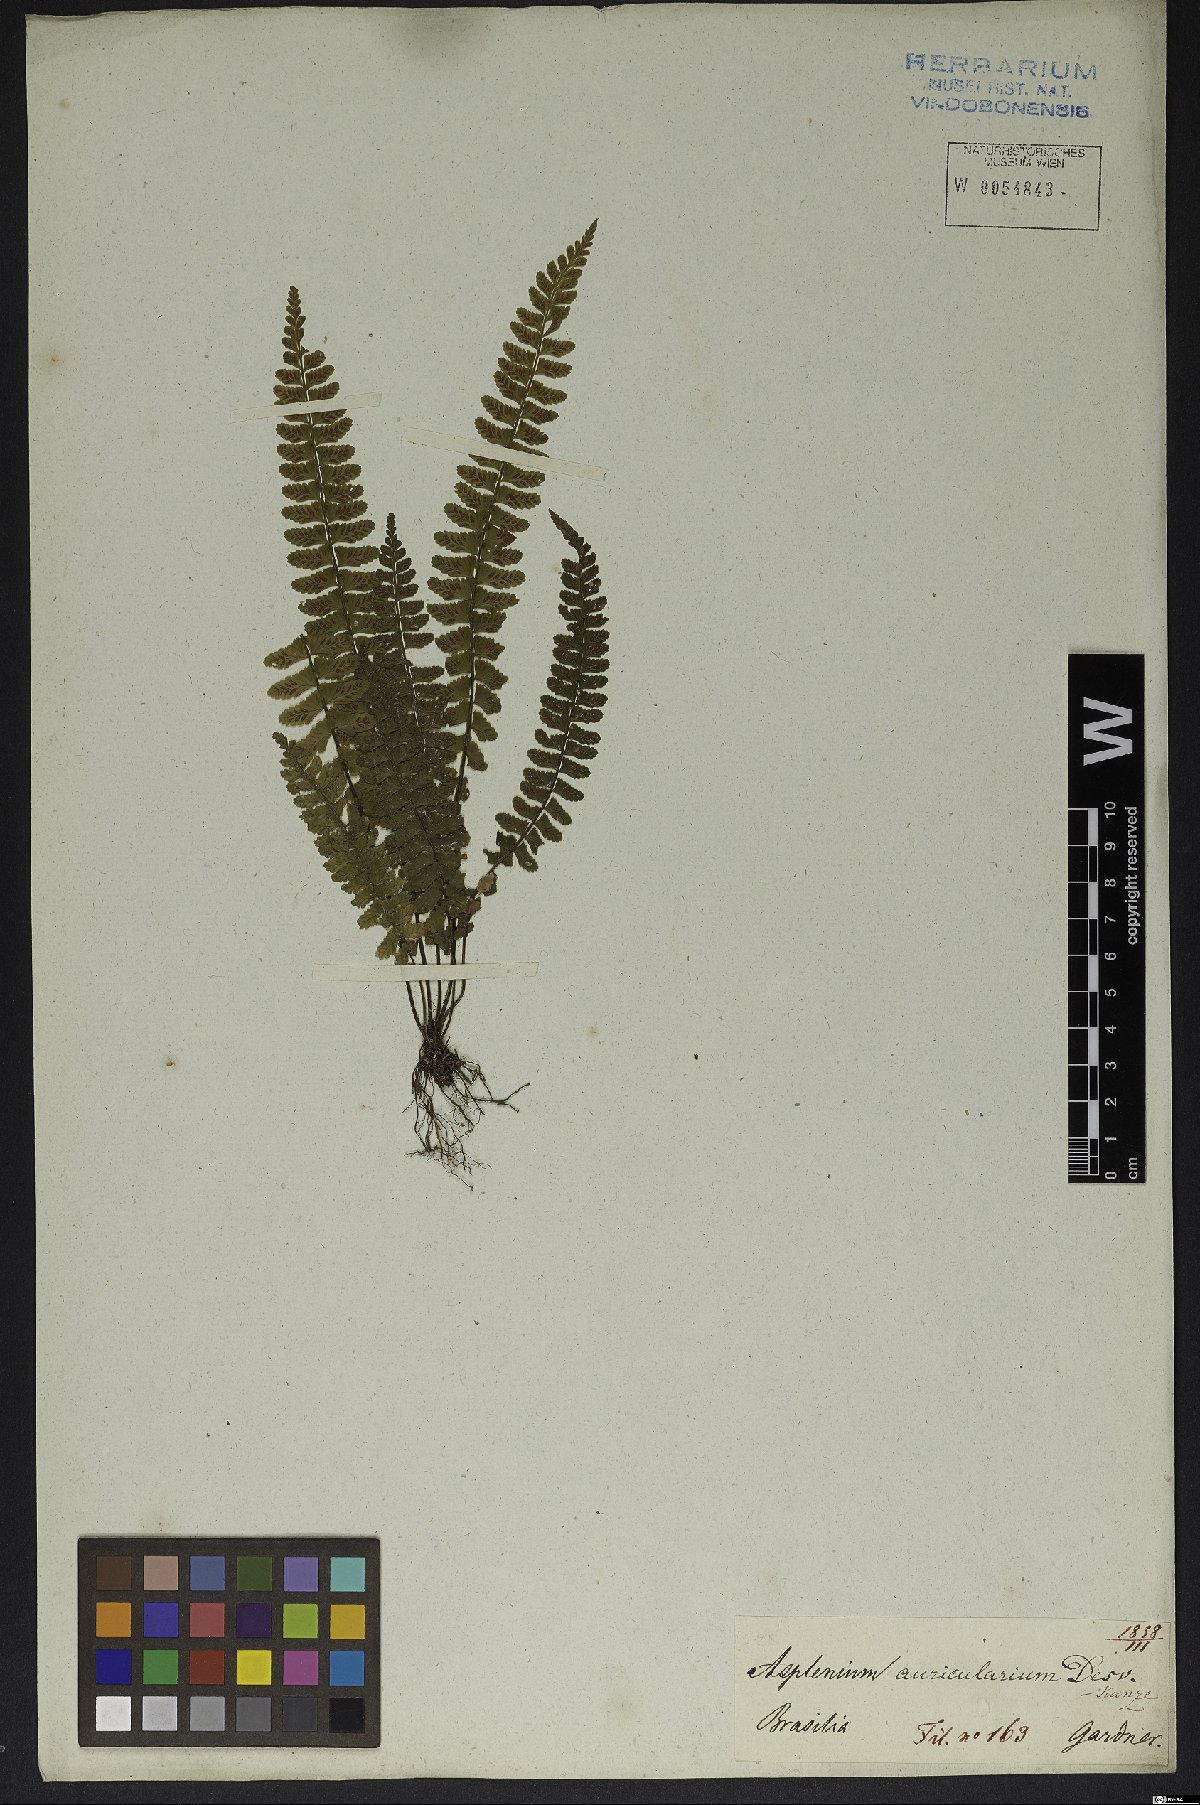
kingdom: Plantae
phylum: Tracheophyta
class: Polypodiopsida
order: Polypodiales
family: Aspleniaceae
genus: Asplenium
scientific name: Asplenium lunulatum
